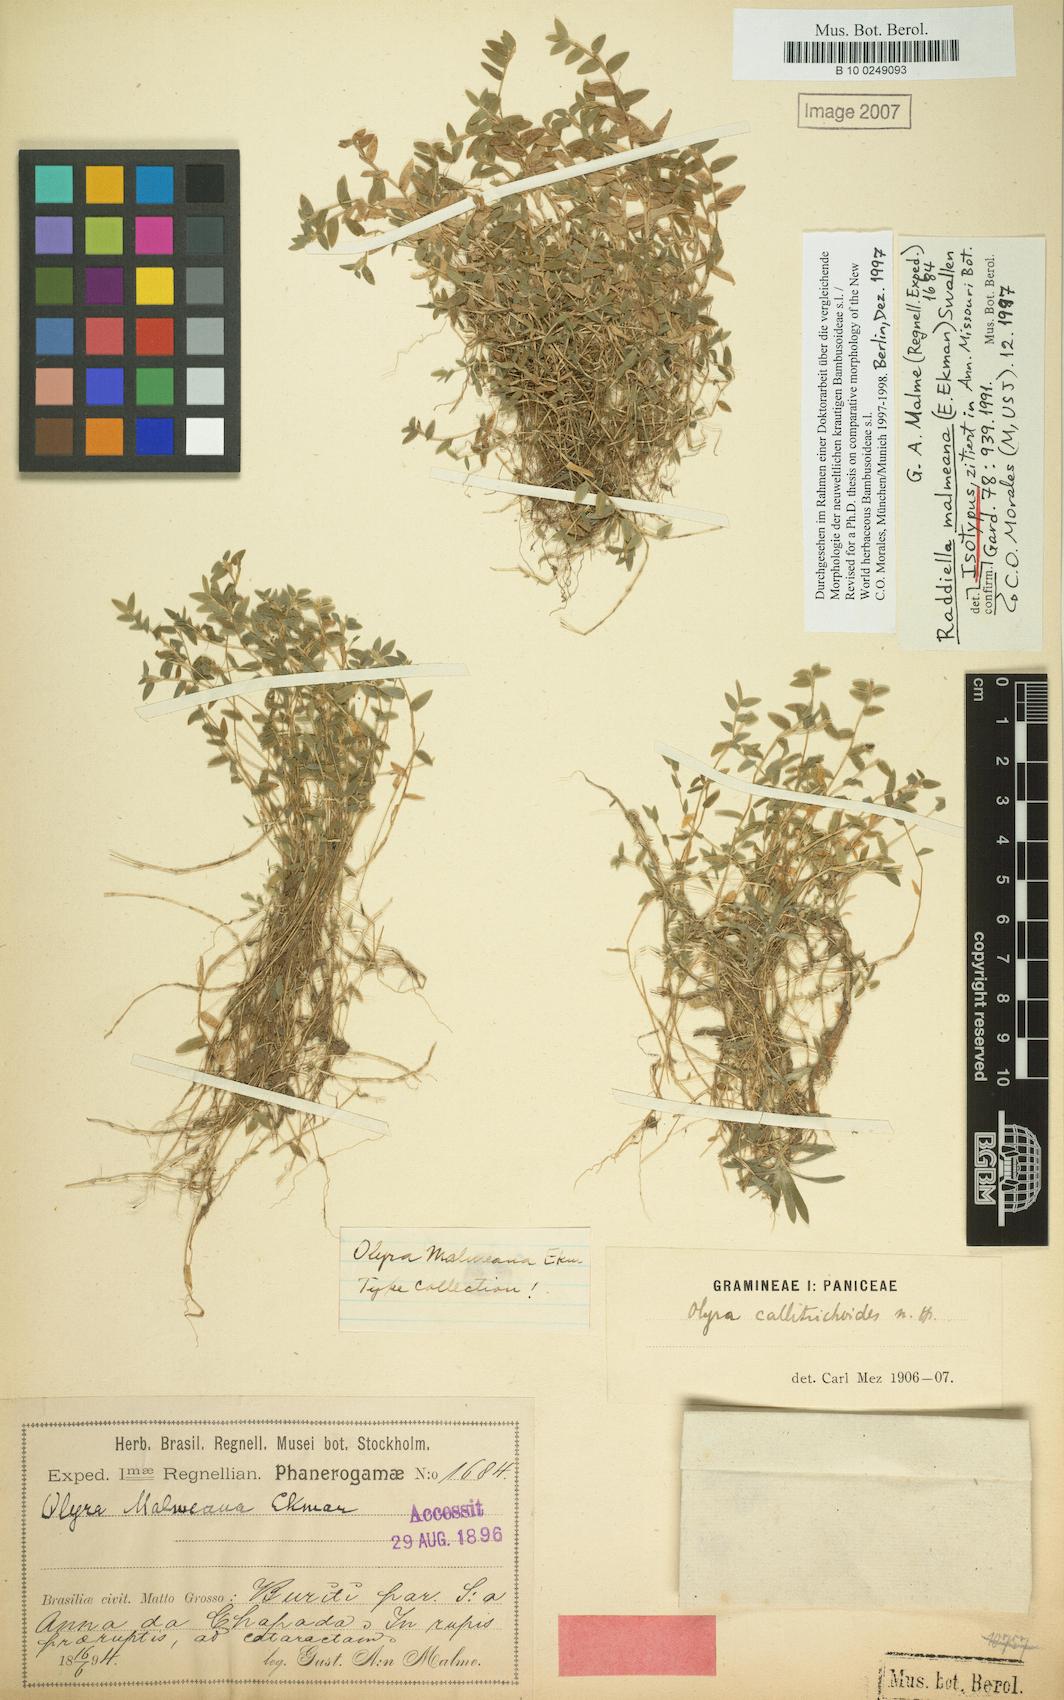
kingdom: Plantae
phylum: Tracheophyta
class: Liliopsida
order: Poales
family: Poaceae
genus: Raddiella
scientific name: Raddiella malmeana
